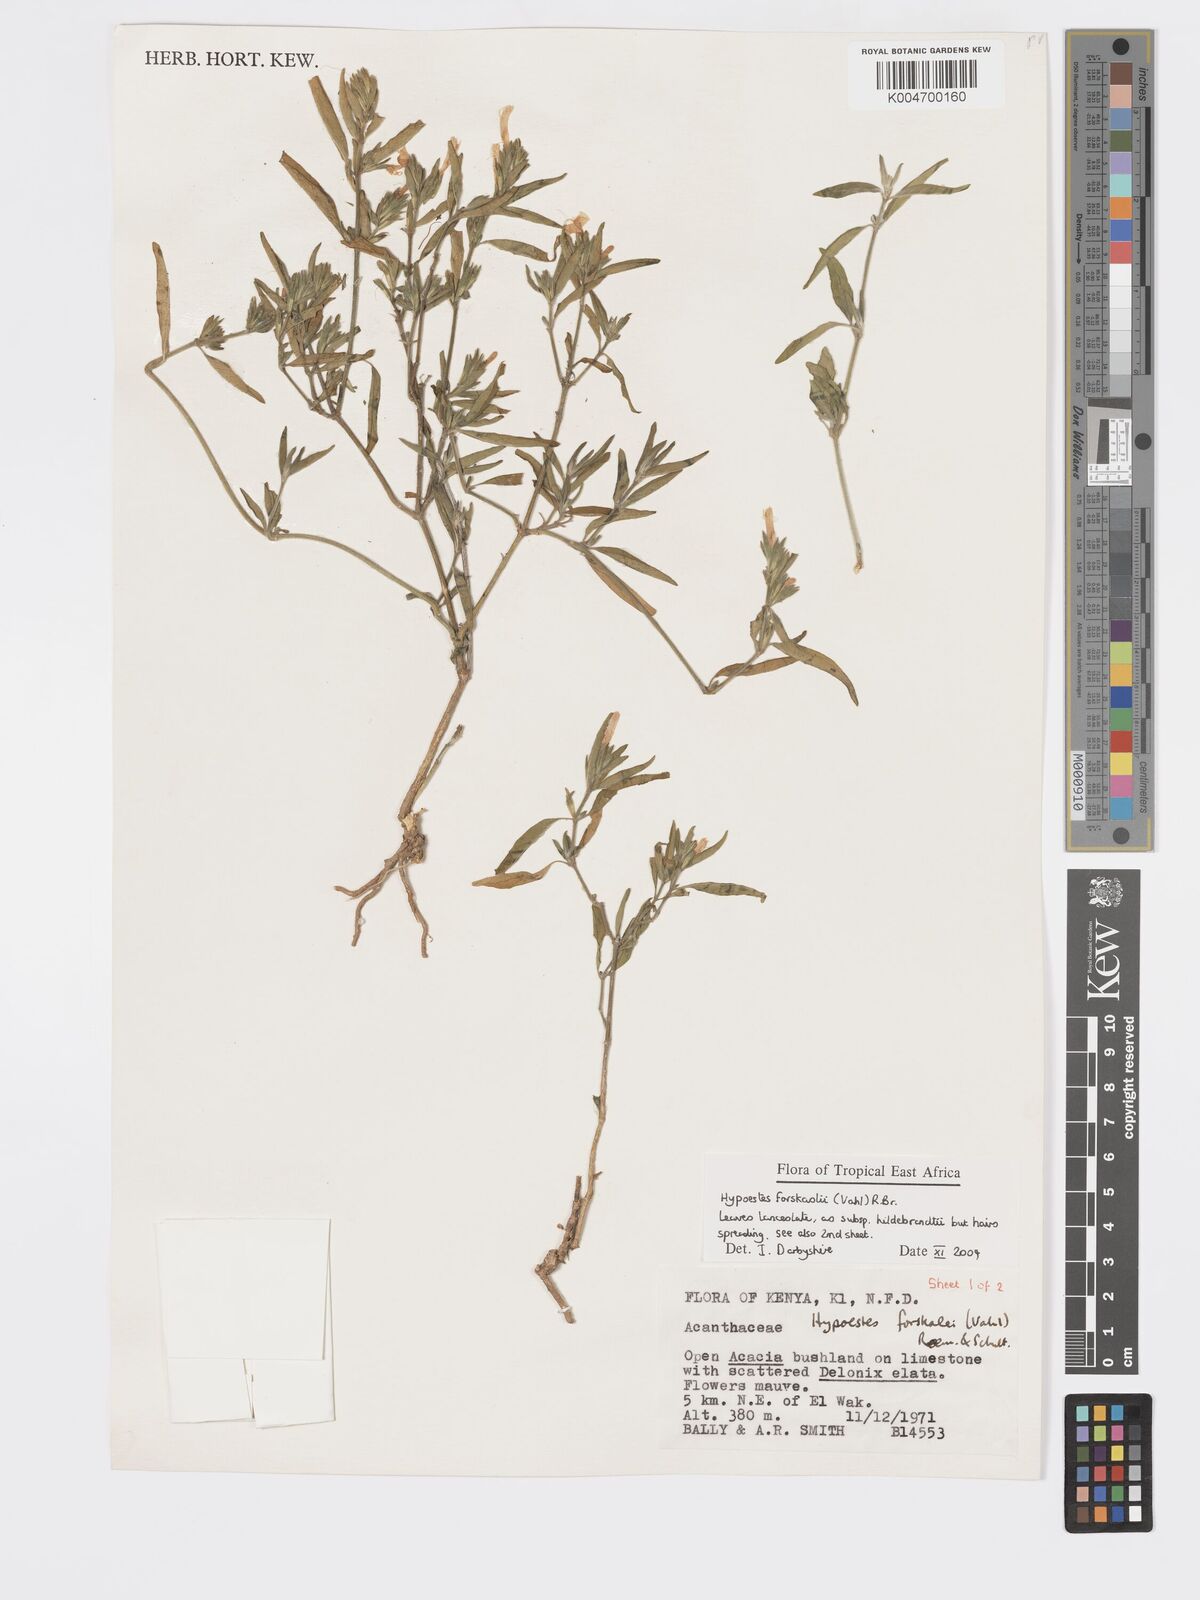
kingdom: Plantae
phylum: Tracheophyta
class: Magnoliopsida
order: Lamiales
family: Acanthaceae
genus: Hypoestes
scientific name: Hypoestes forskaolii
